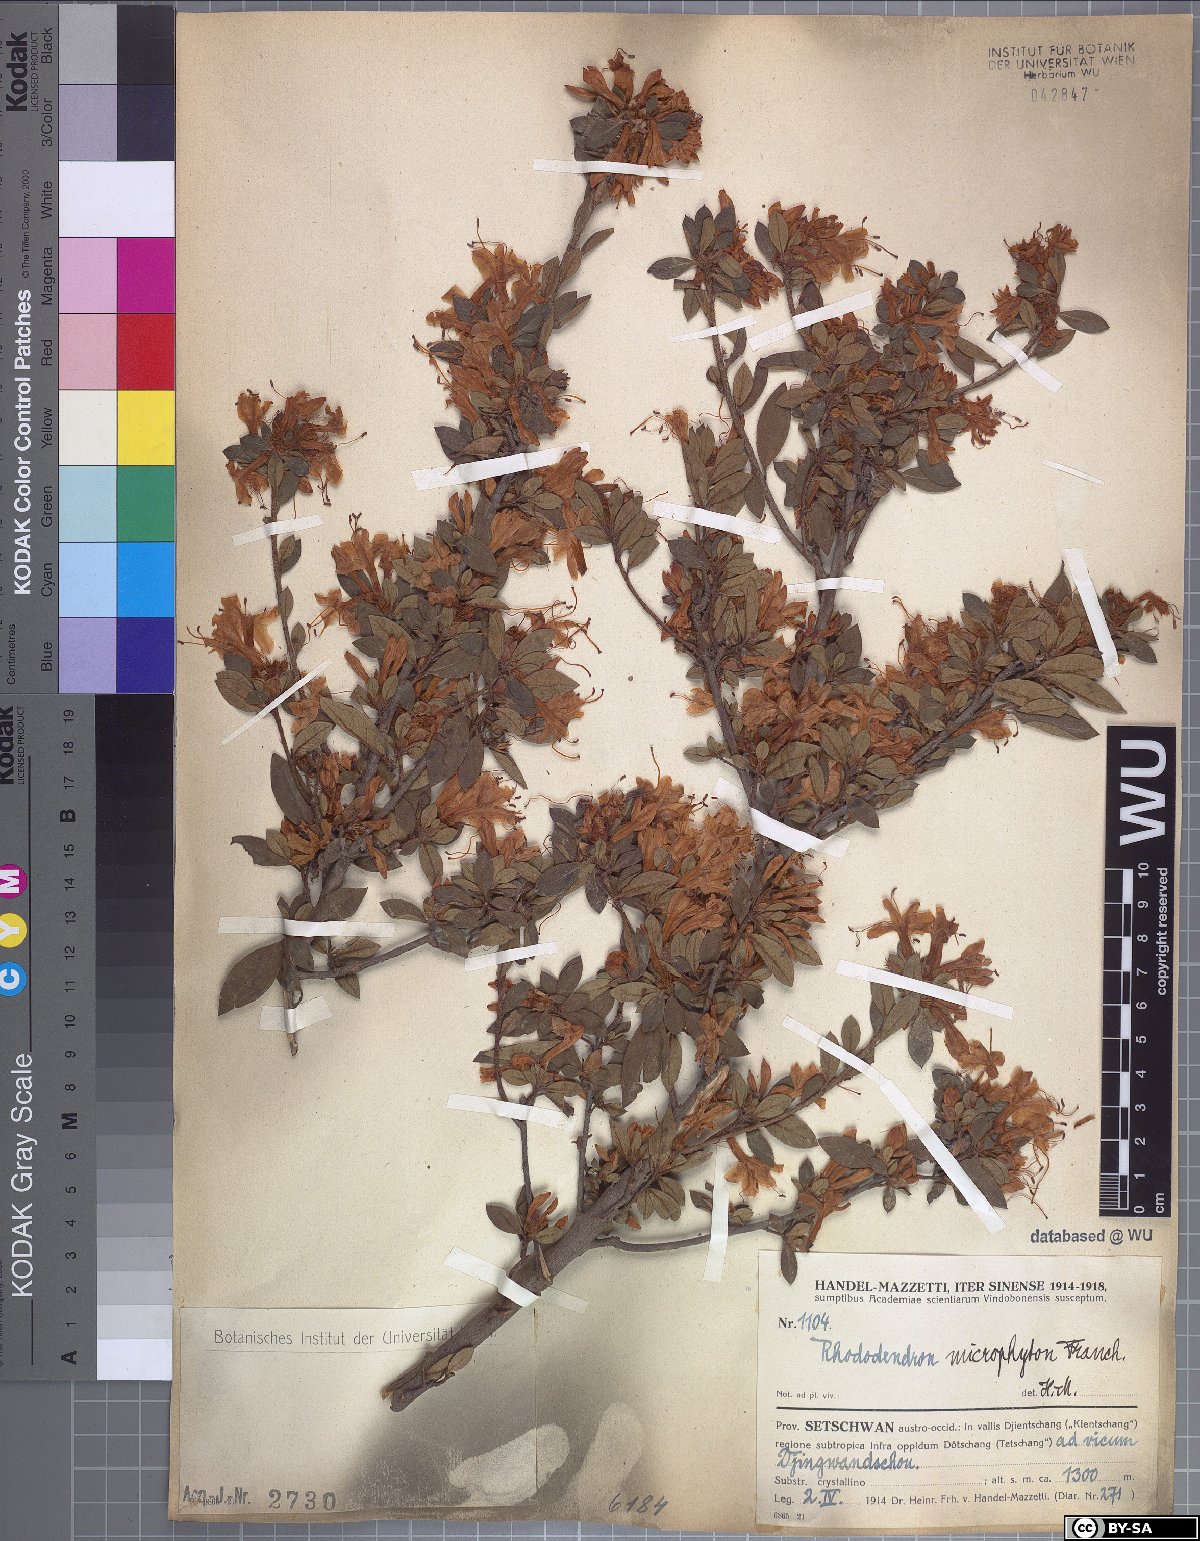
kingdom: Plantae
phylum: Tracheophyta
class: Magnoliopsida
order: Ericales
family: Ericaceae
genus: Rhododendron
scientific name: Rhododendron microphyton
